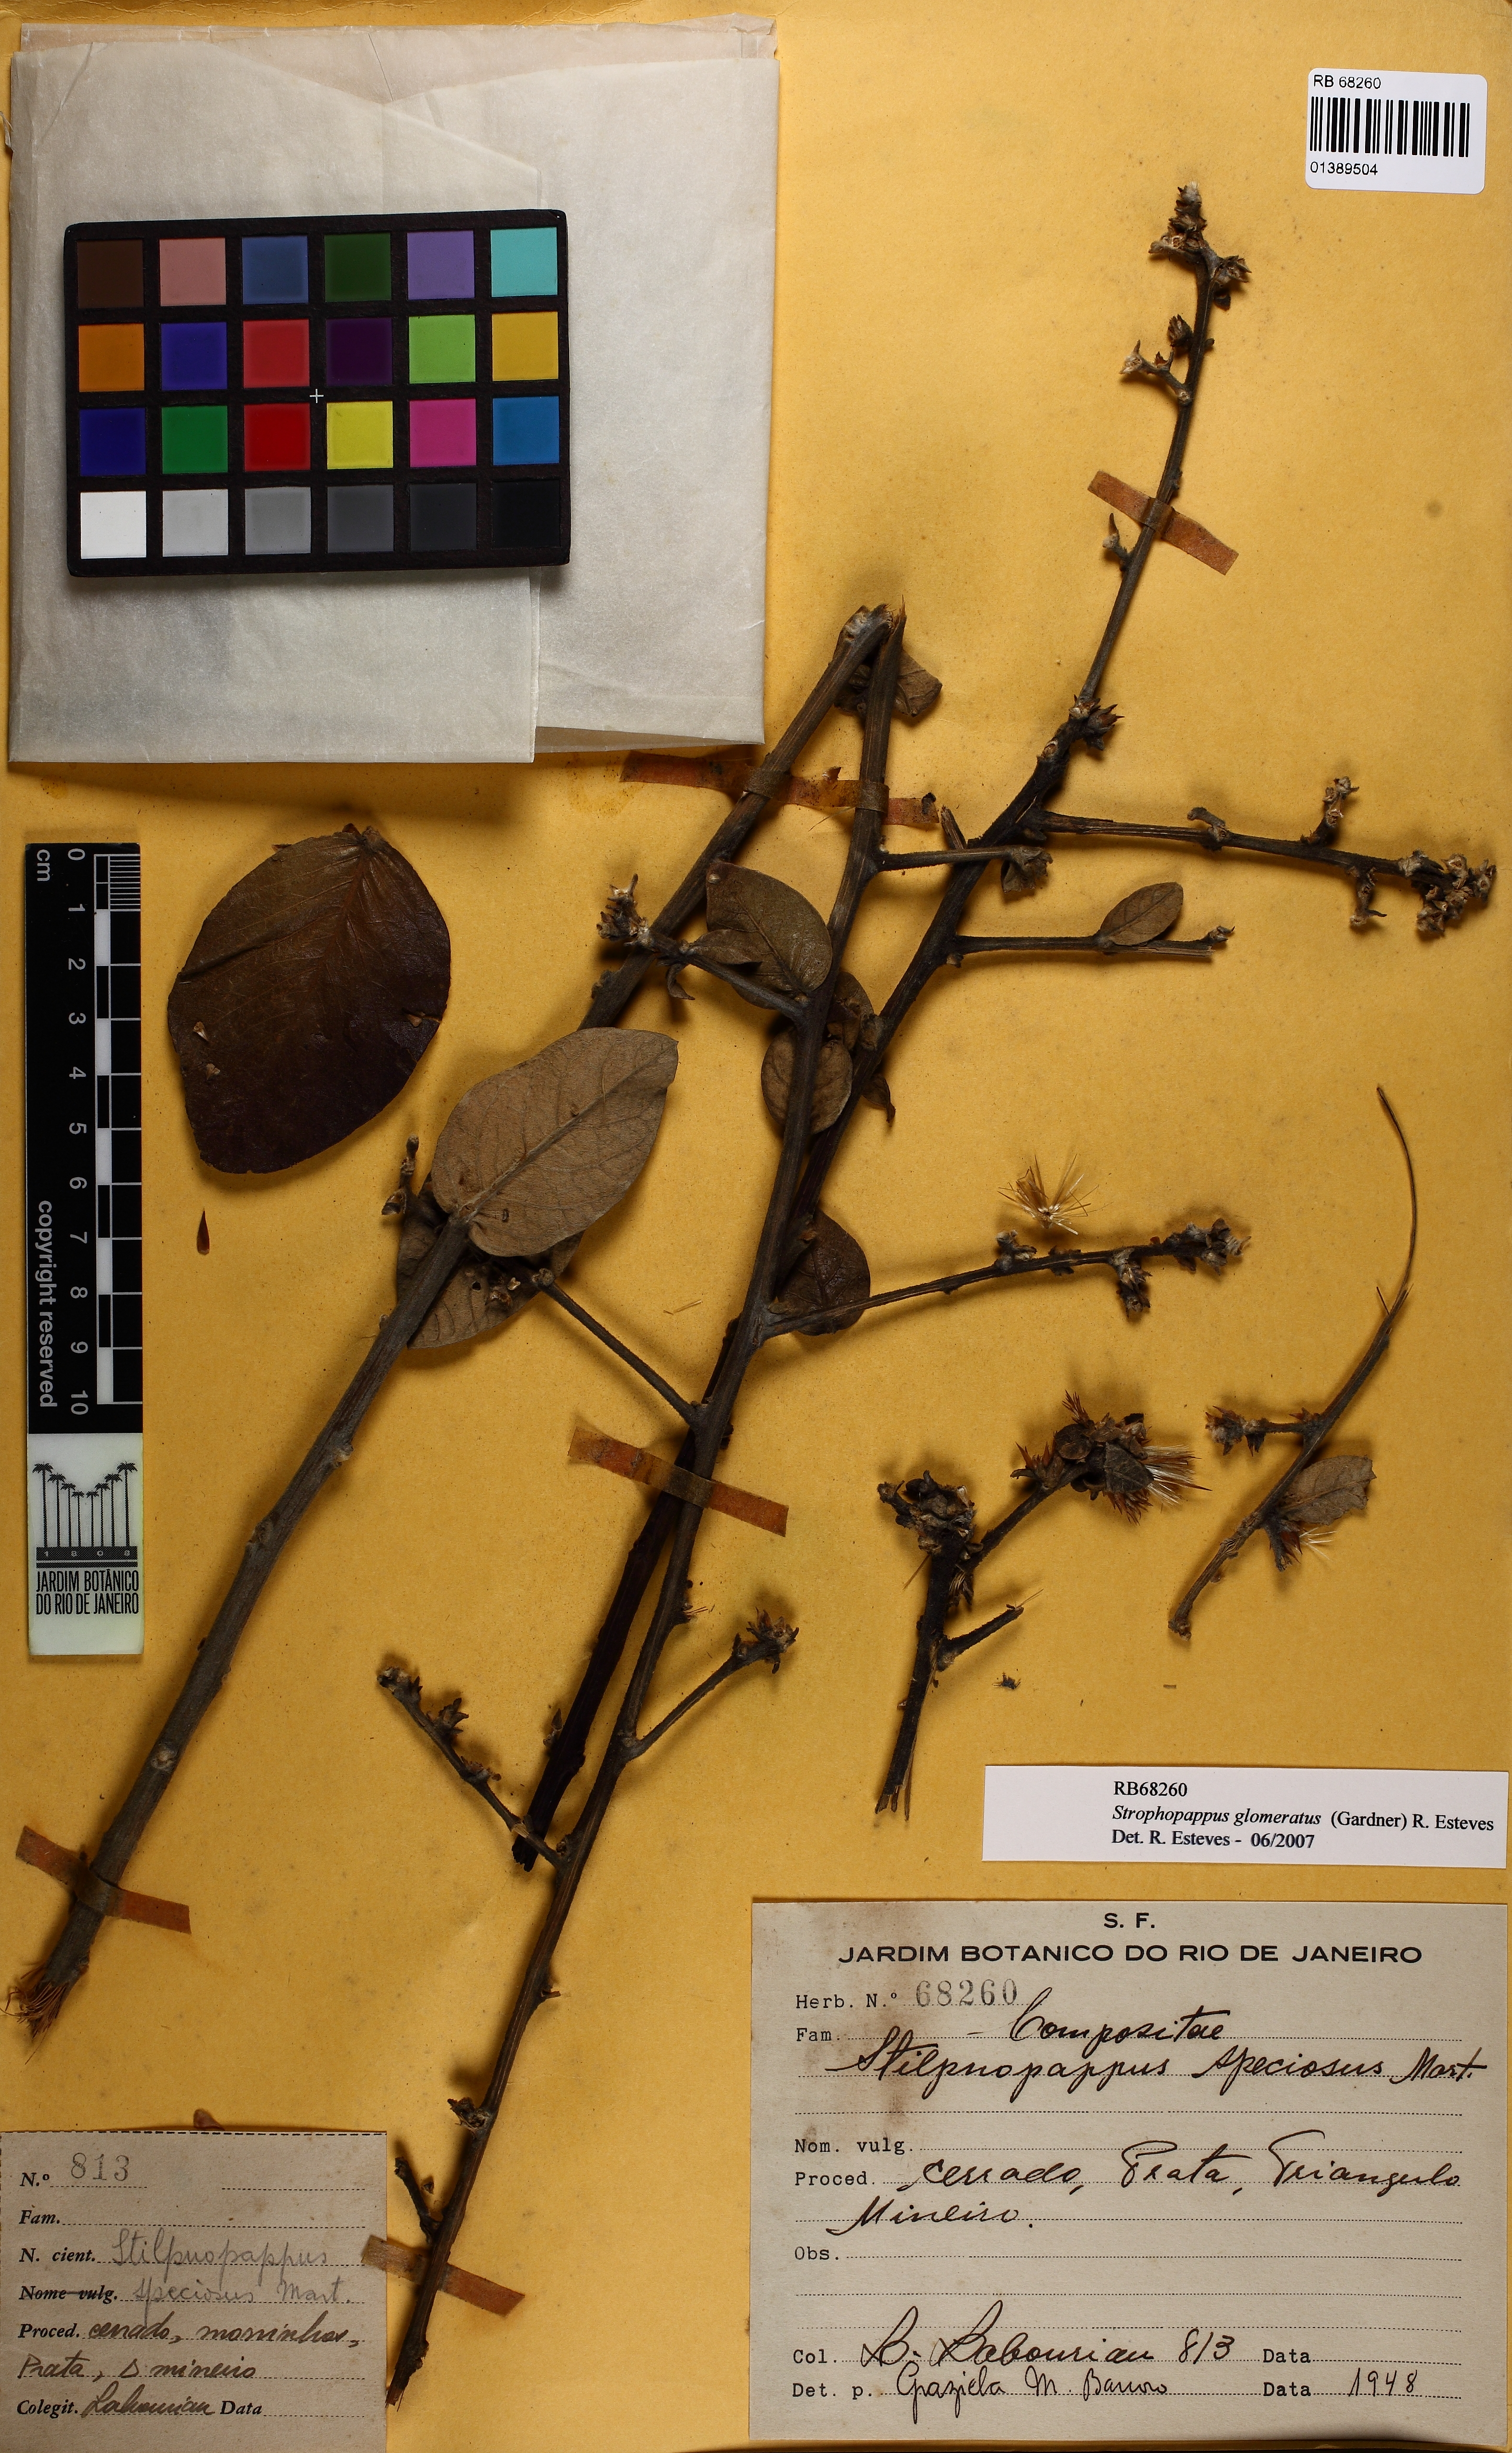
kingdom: Plantae
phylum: Tracheophyta
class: Magnoliopsida
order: Asterales
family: Asteraceae
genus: Stilpnopappus
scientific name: Stilpnopappus glomeratus
